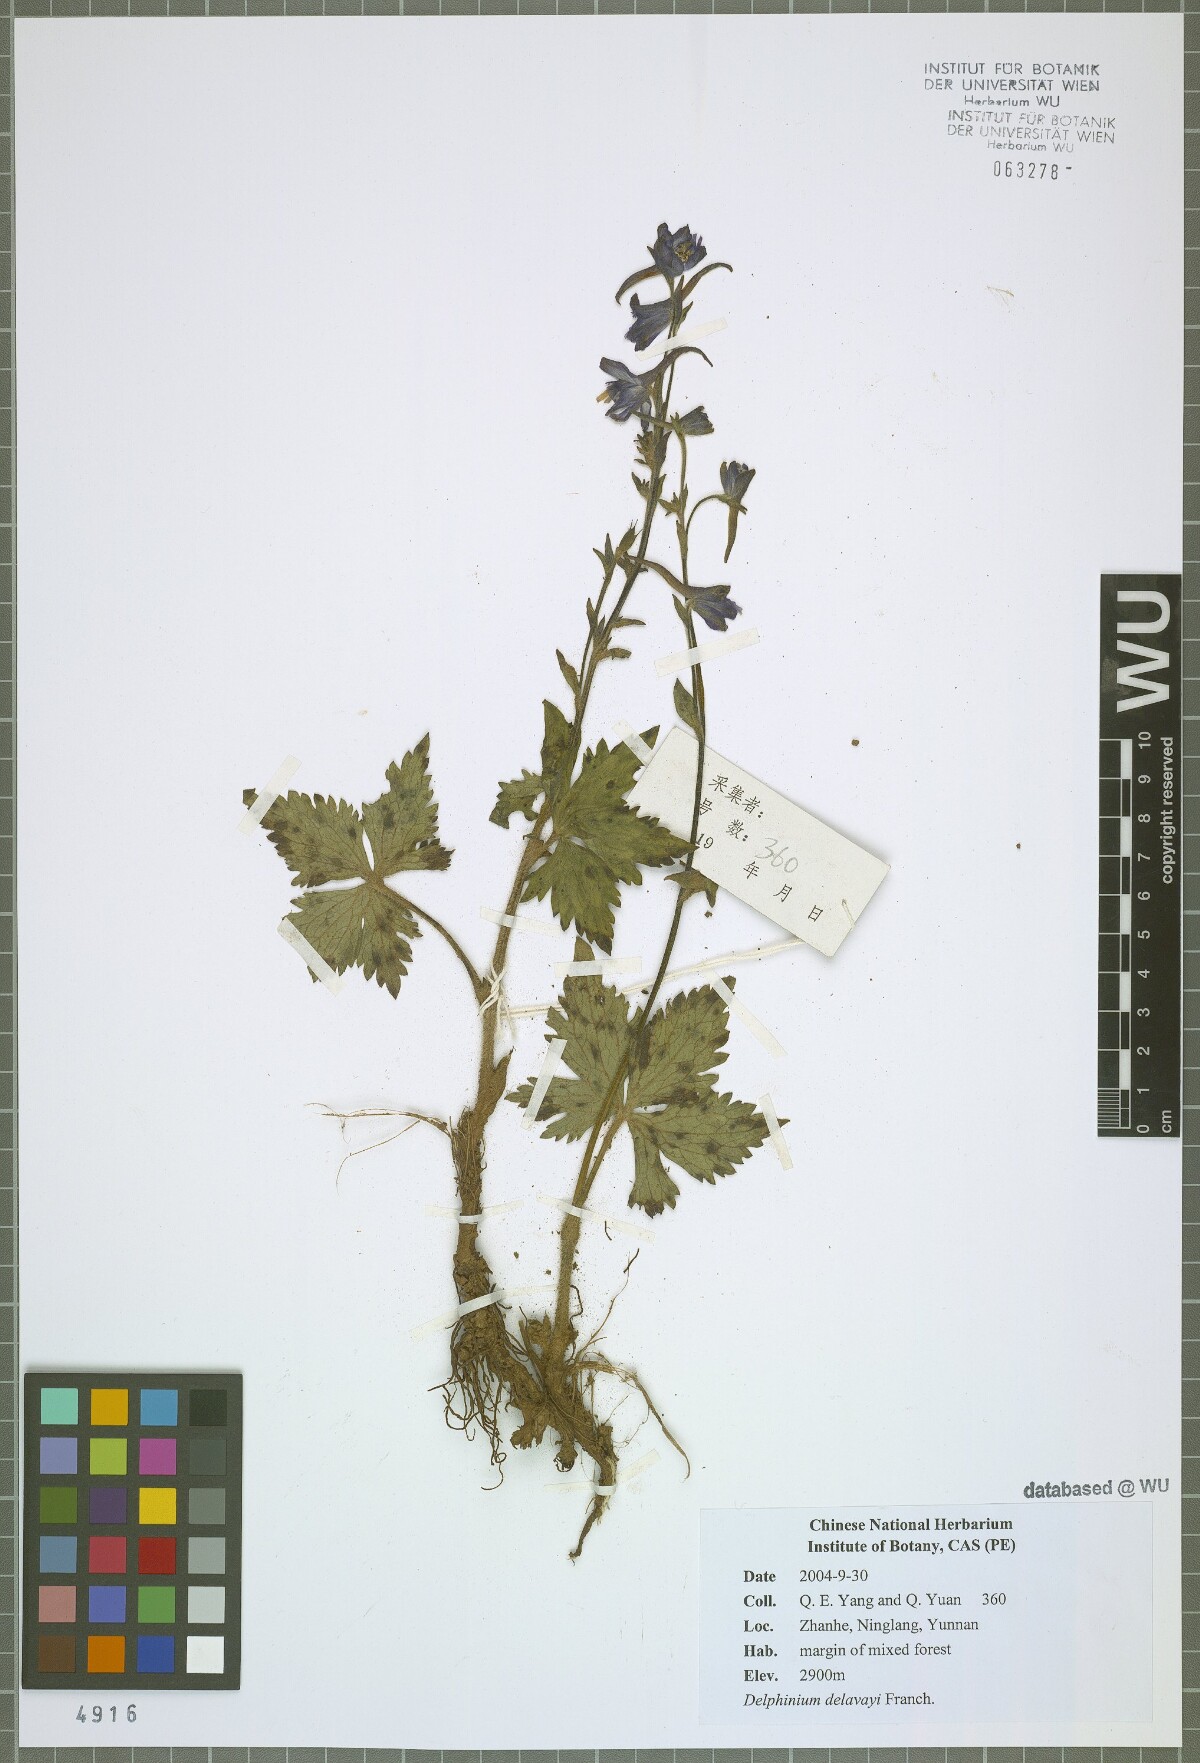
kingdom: Plantae
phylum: Tracheophyta
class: Magnoliopsida
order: Ranunculales
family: Ranunculaceae
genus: Delphinium
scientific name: Delphinium delavayi
